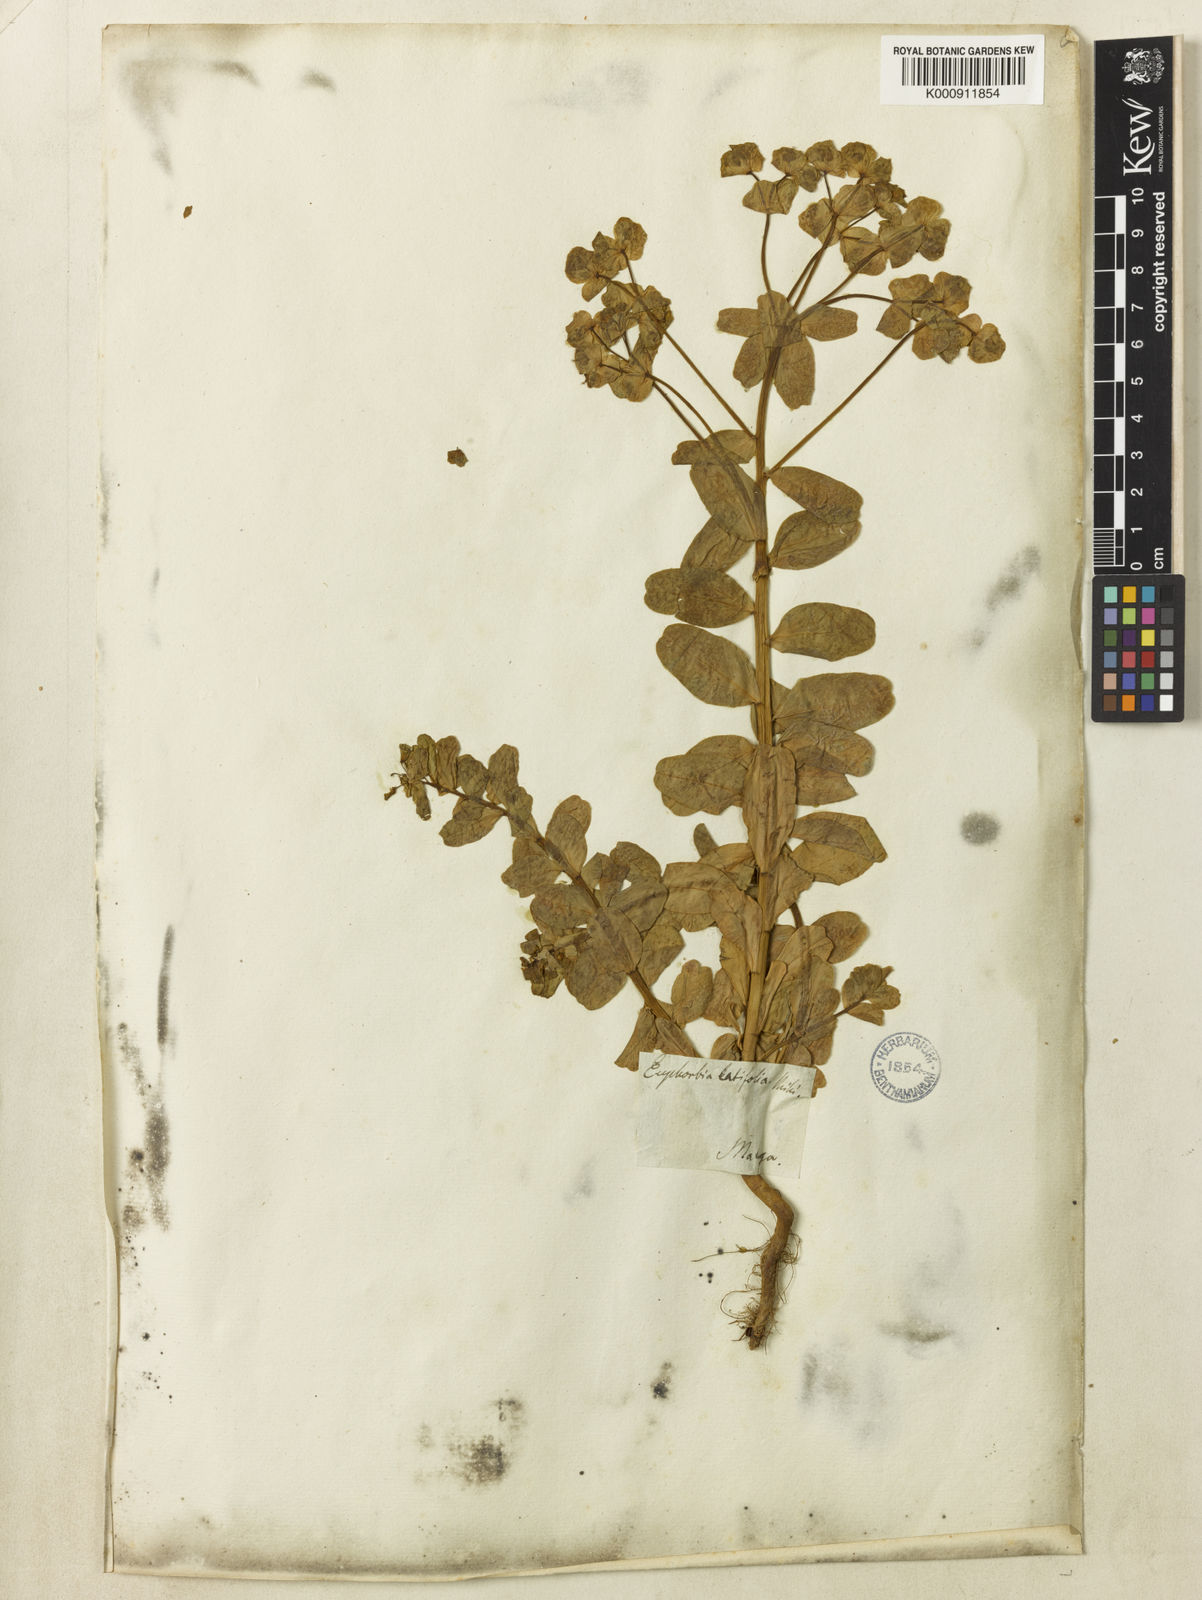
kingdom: Plantae
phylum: Tracheophyta
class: Magnoliopsida
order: Malpighiales
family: Euphorbiaceae
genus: Euphorbia
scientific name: Euphorbia medicaginea
